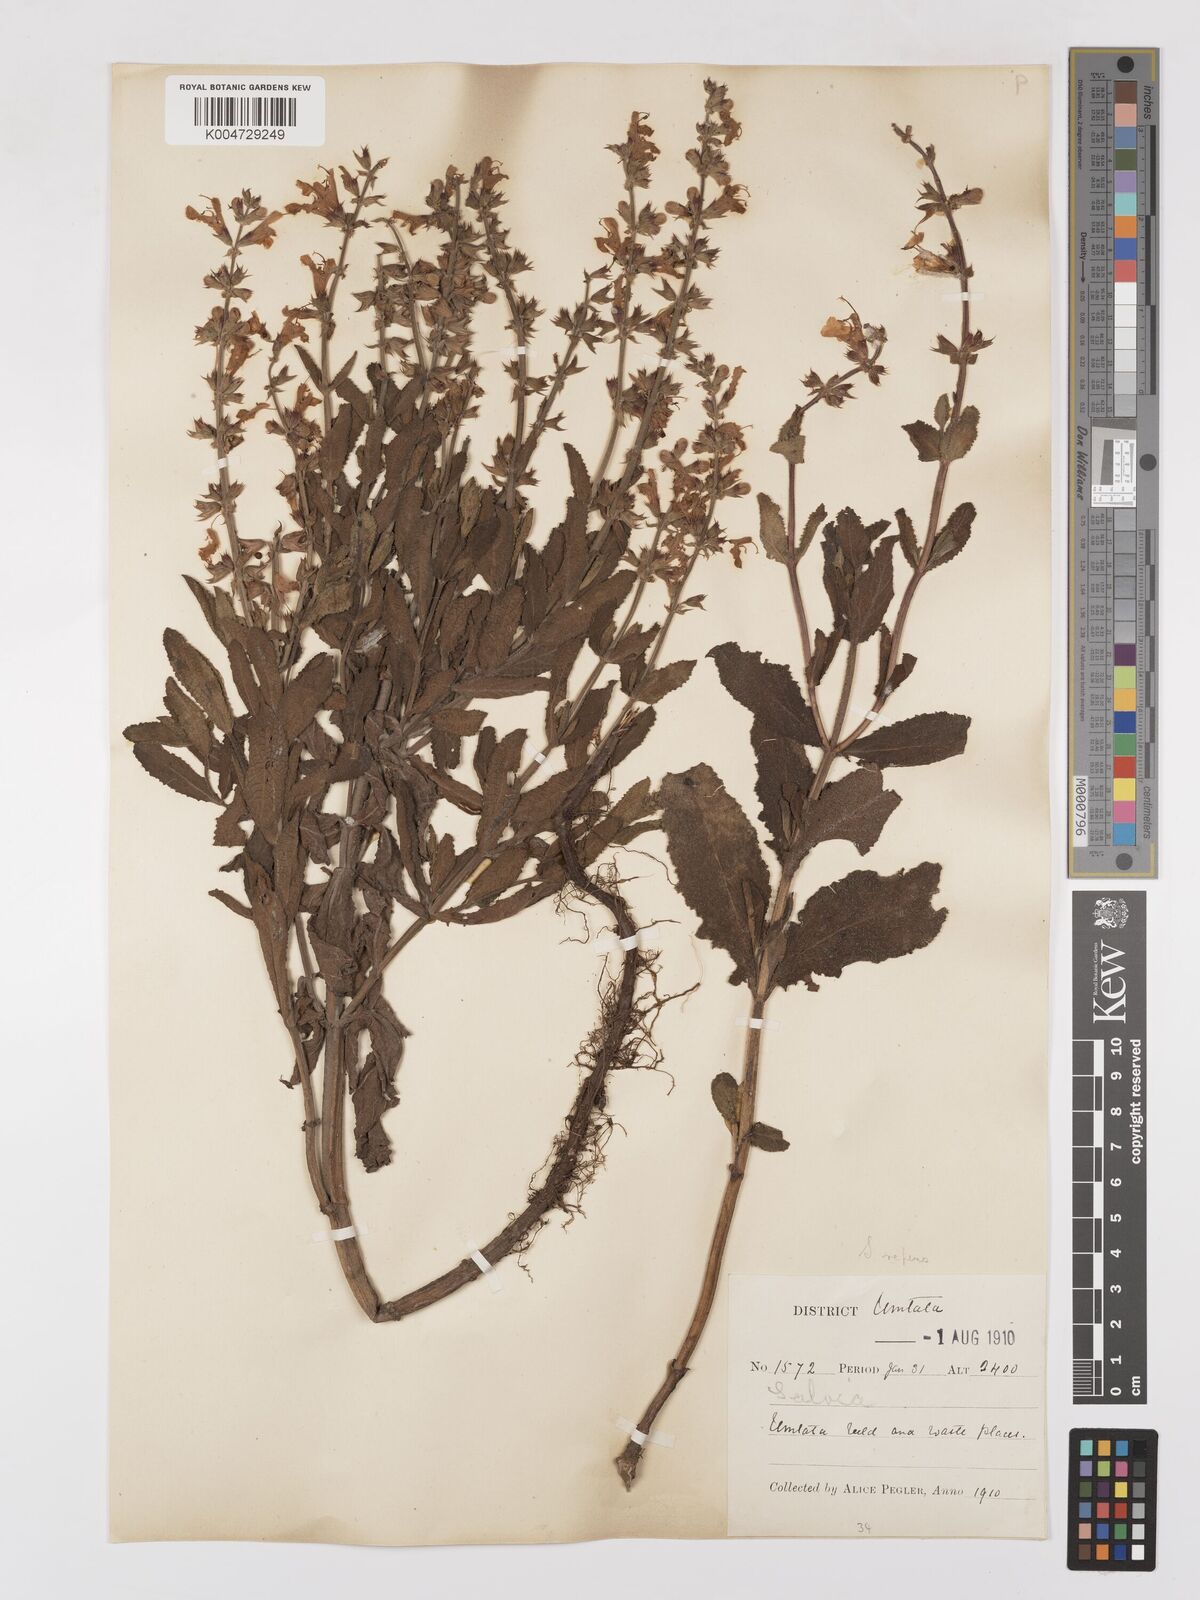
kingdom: Plantae
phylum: Tracheophyta
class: Magnoliopsida
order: Lamiales
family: Lamiaceae
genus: Salvia
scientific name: Salvia repens
